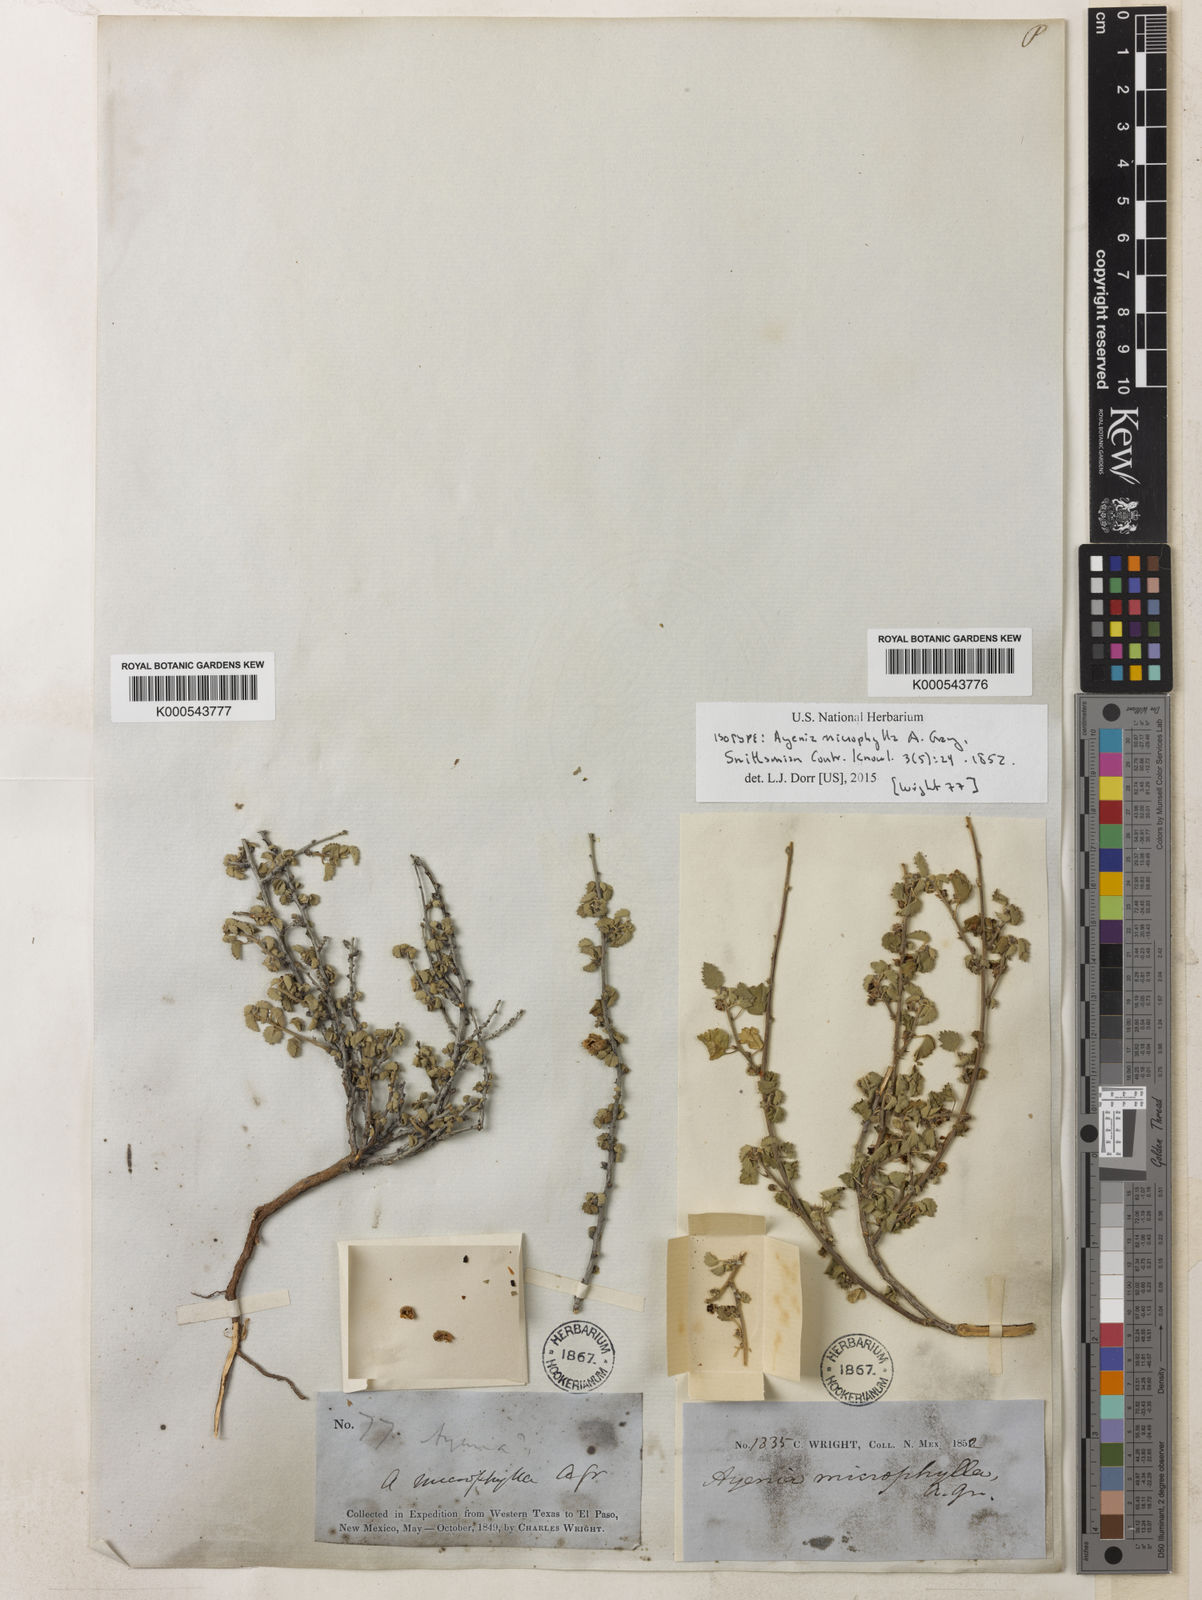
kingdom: Plantae
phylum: Tracheophyta
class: Magnoliopsida
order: Malvales
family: Malvaceae
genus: Ayenia
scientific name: Ayenia microphylla
